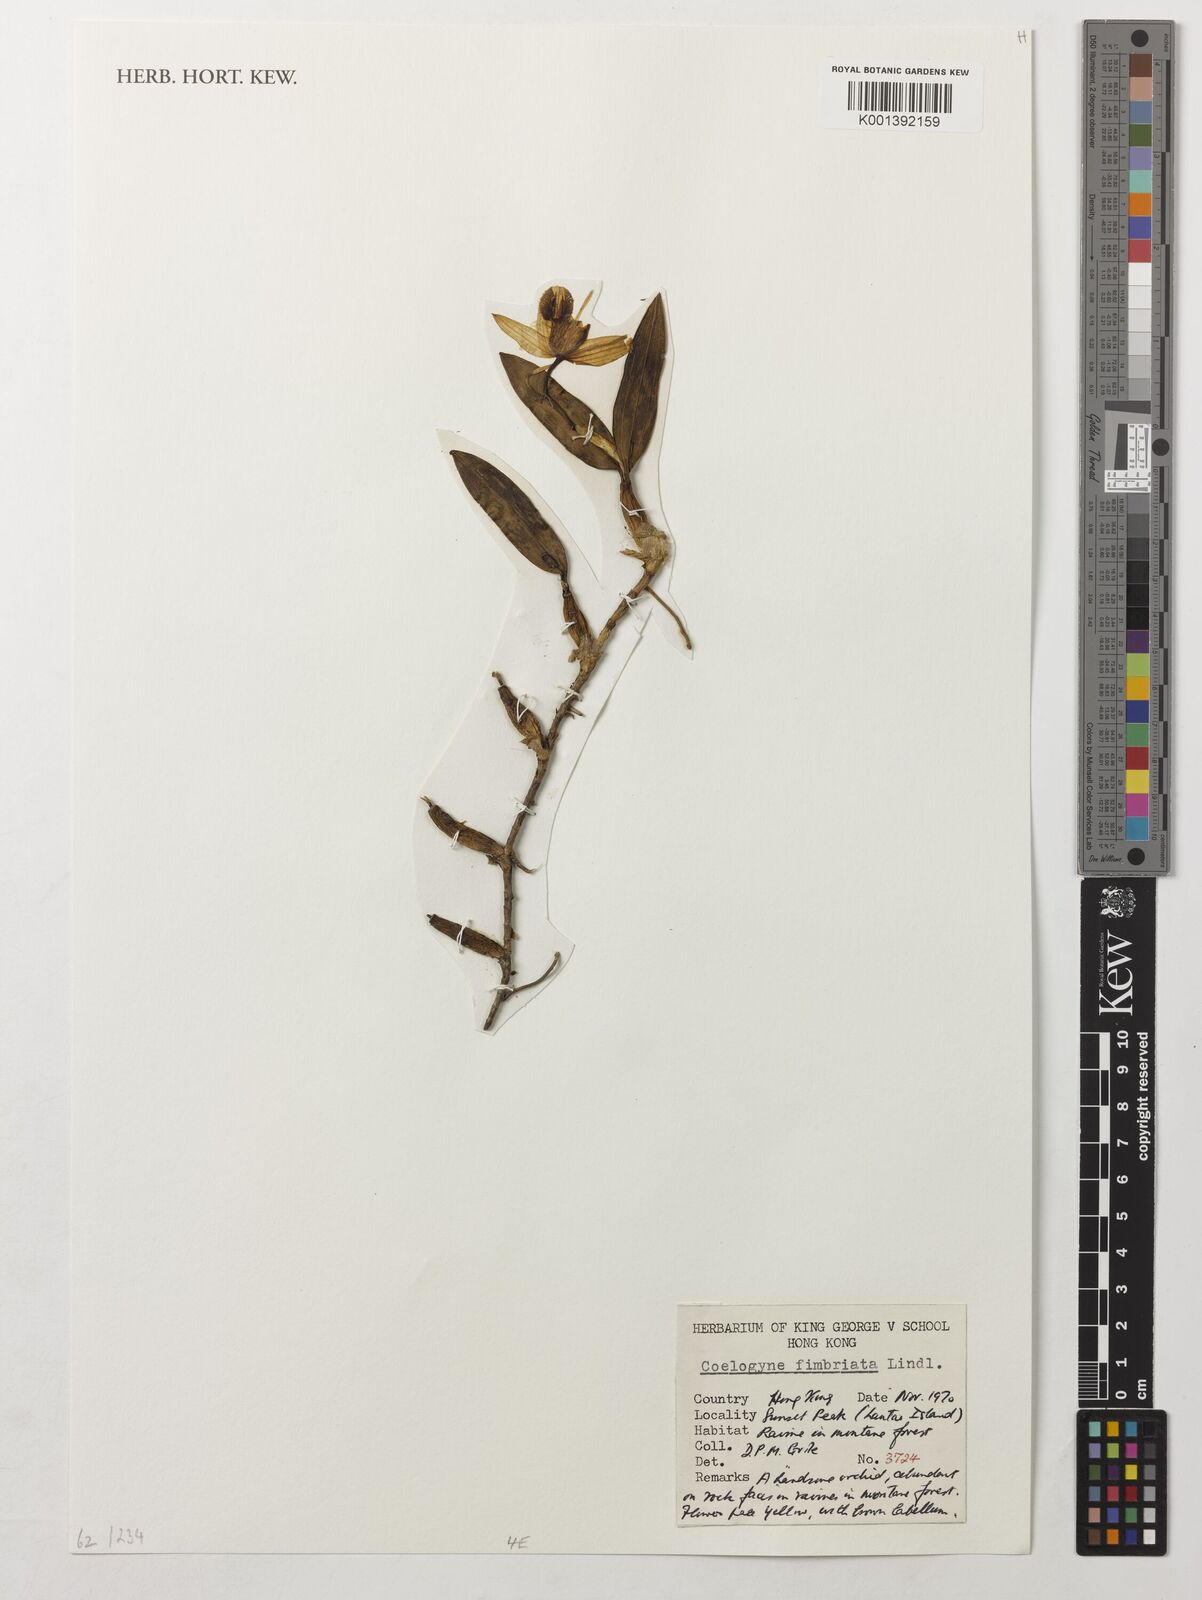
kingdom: Plantae
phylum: Tracheophyta
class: Liliopsida
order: Asparagales
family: Orchidaceae
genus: Coelogyne
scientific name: Coelogyne fimbriata
